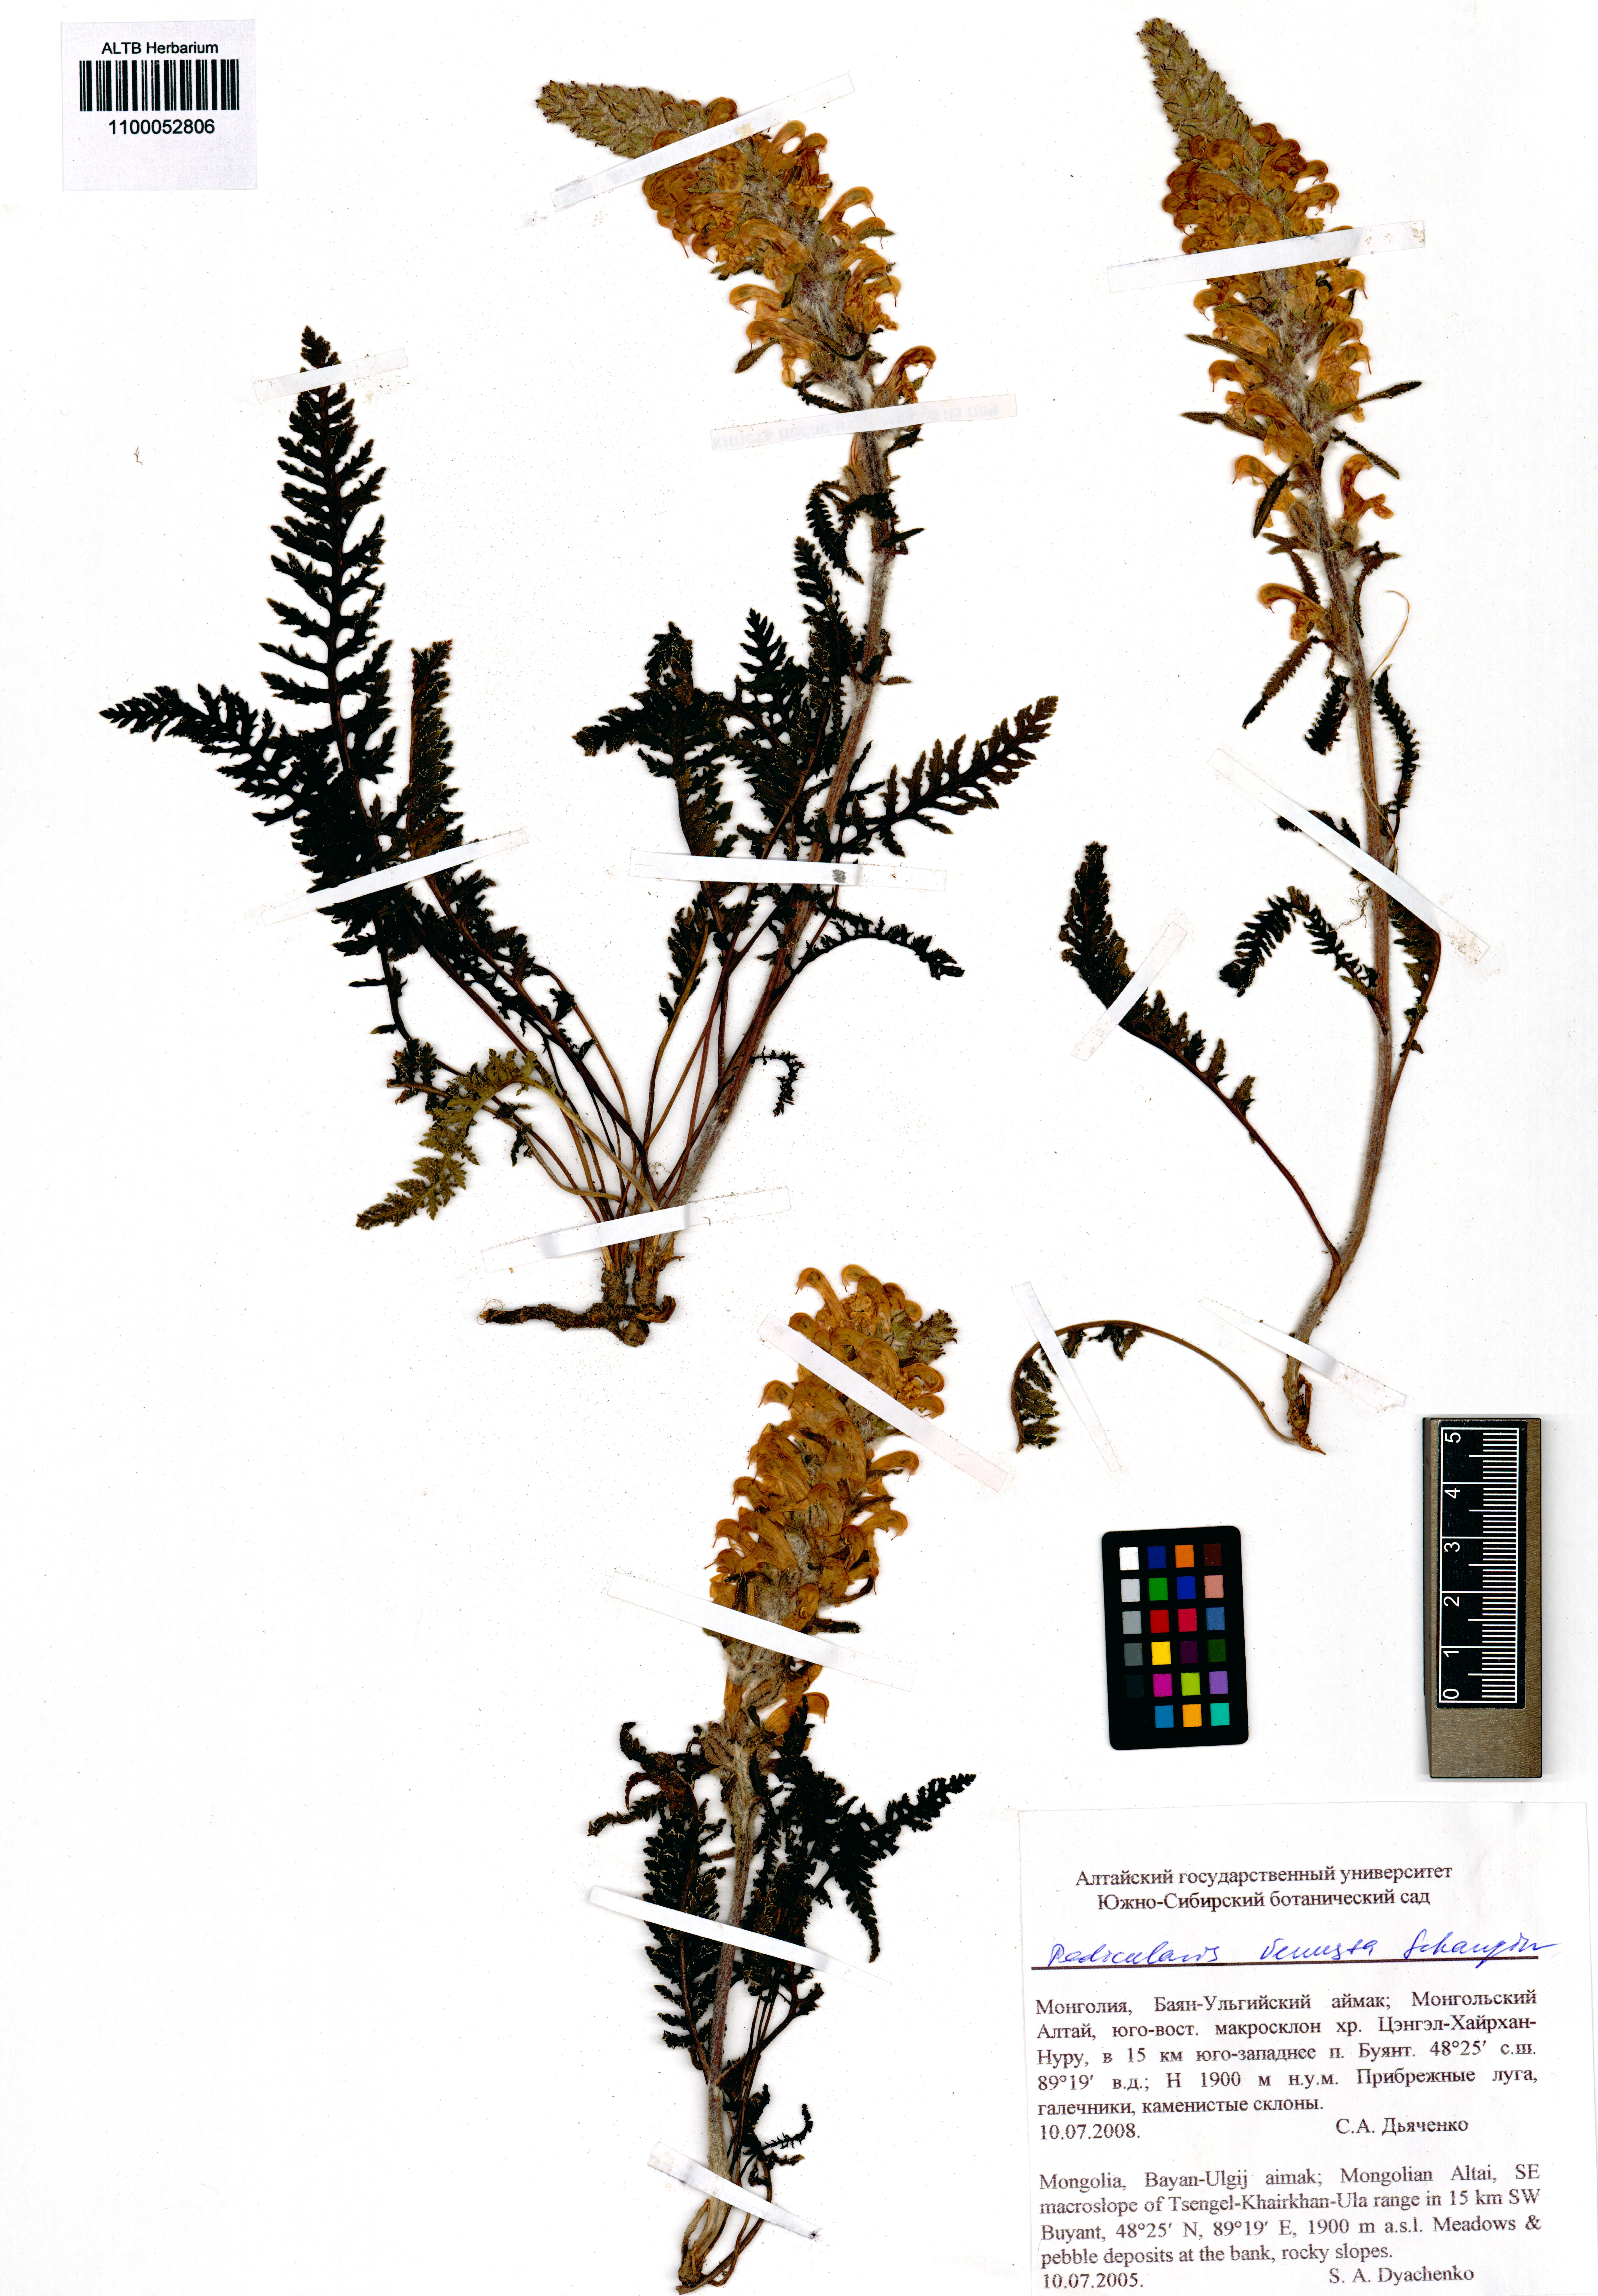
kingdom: Plantae
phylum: Tracheophyta
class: Magnoliopsida
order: Lamiales
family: Orobanchaceae
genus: Pedicularis
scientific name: Pedicularis venusta
